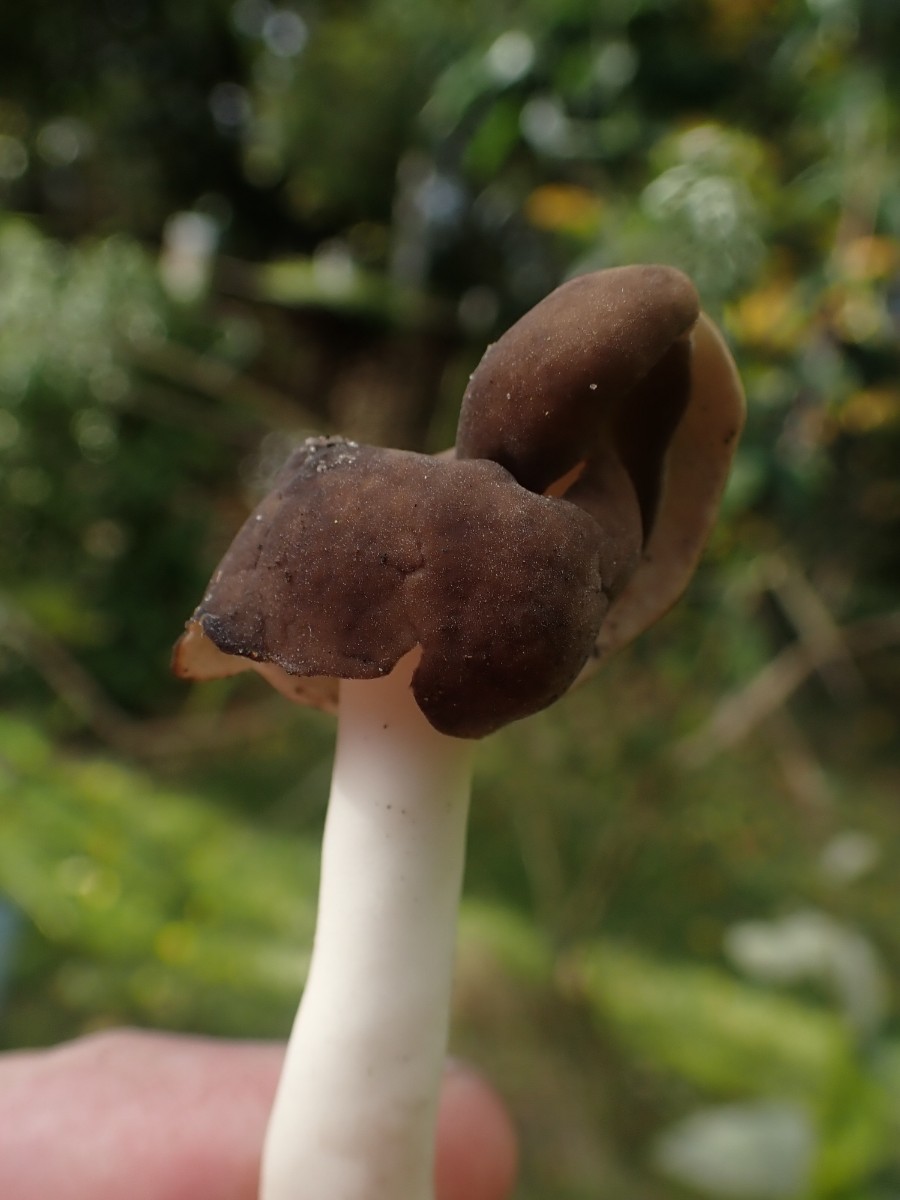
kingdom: Fungi
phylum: Ascomycota
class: Pezizomycetes
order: Pezizales
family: Helvellaceae
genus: Helvella
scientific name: Helvella elastica
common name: elastik-foldhat
